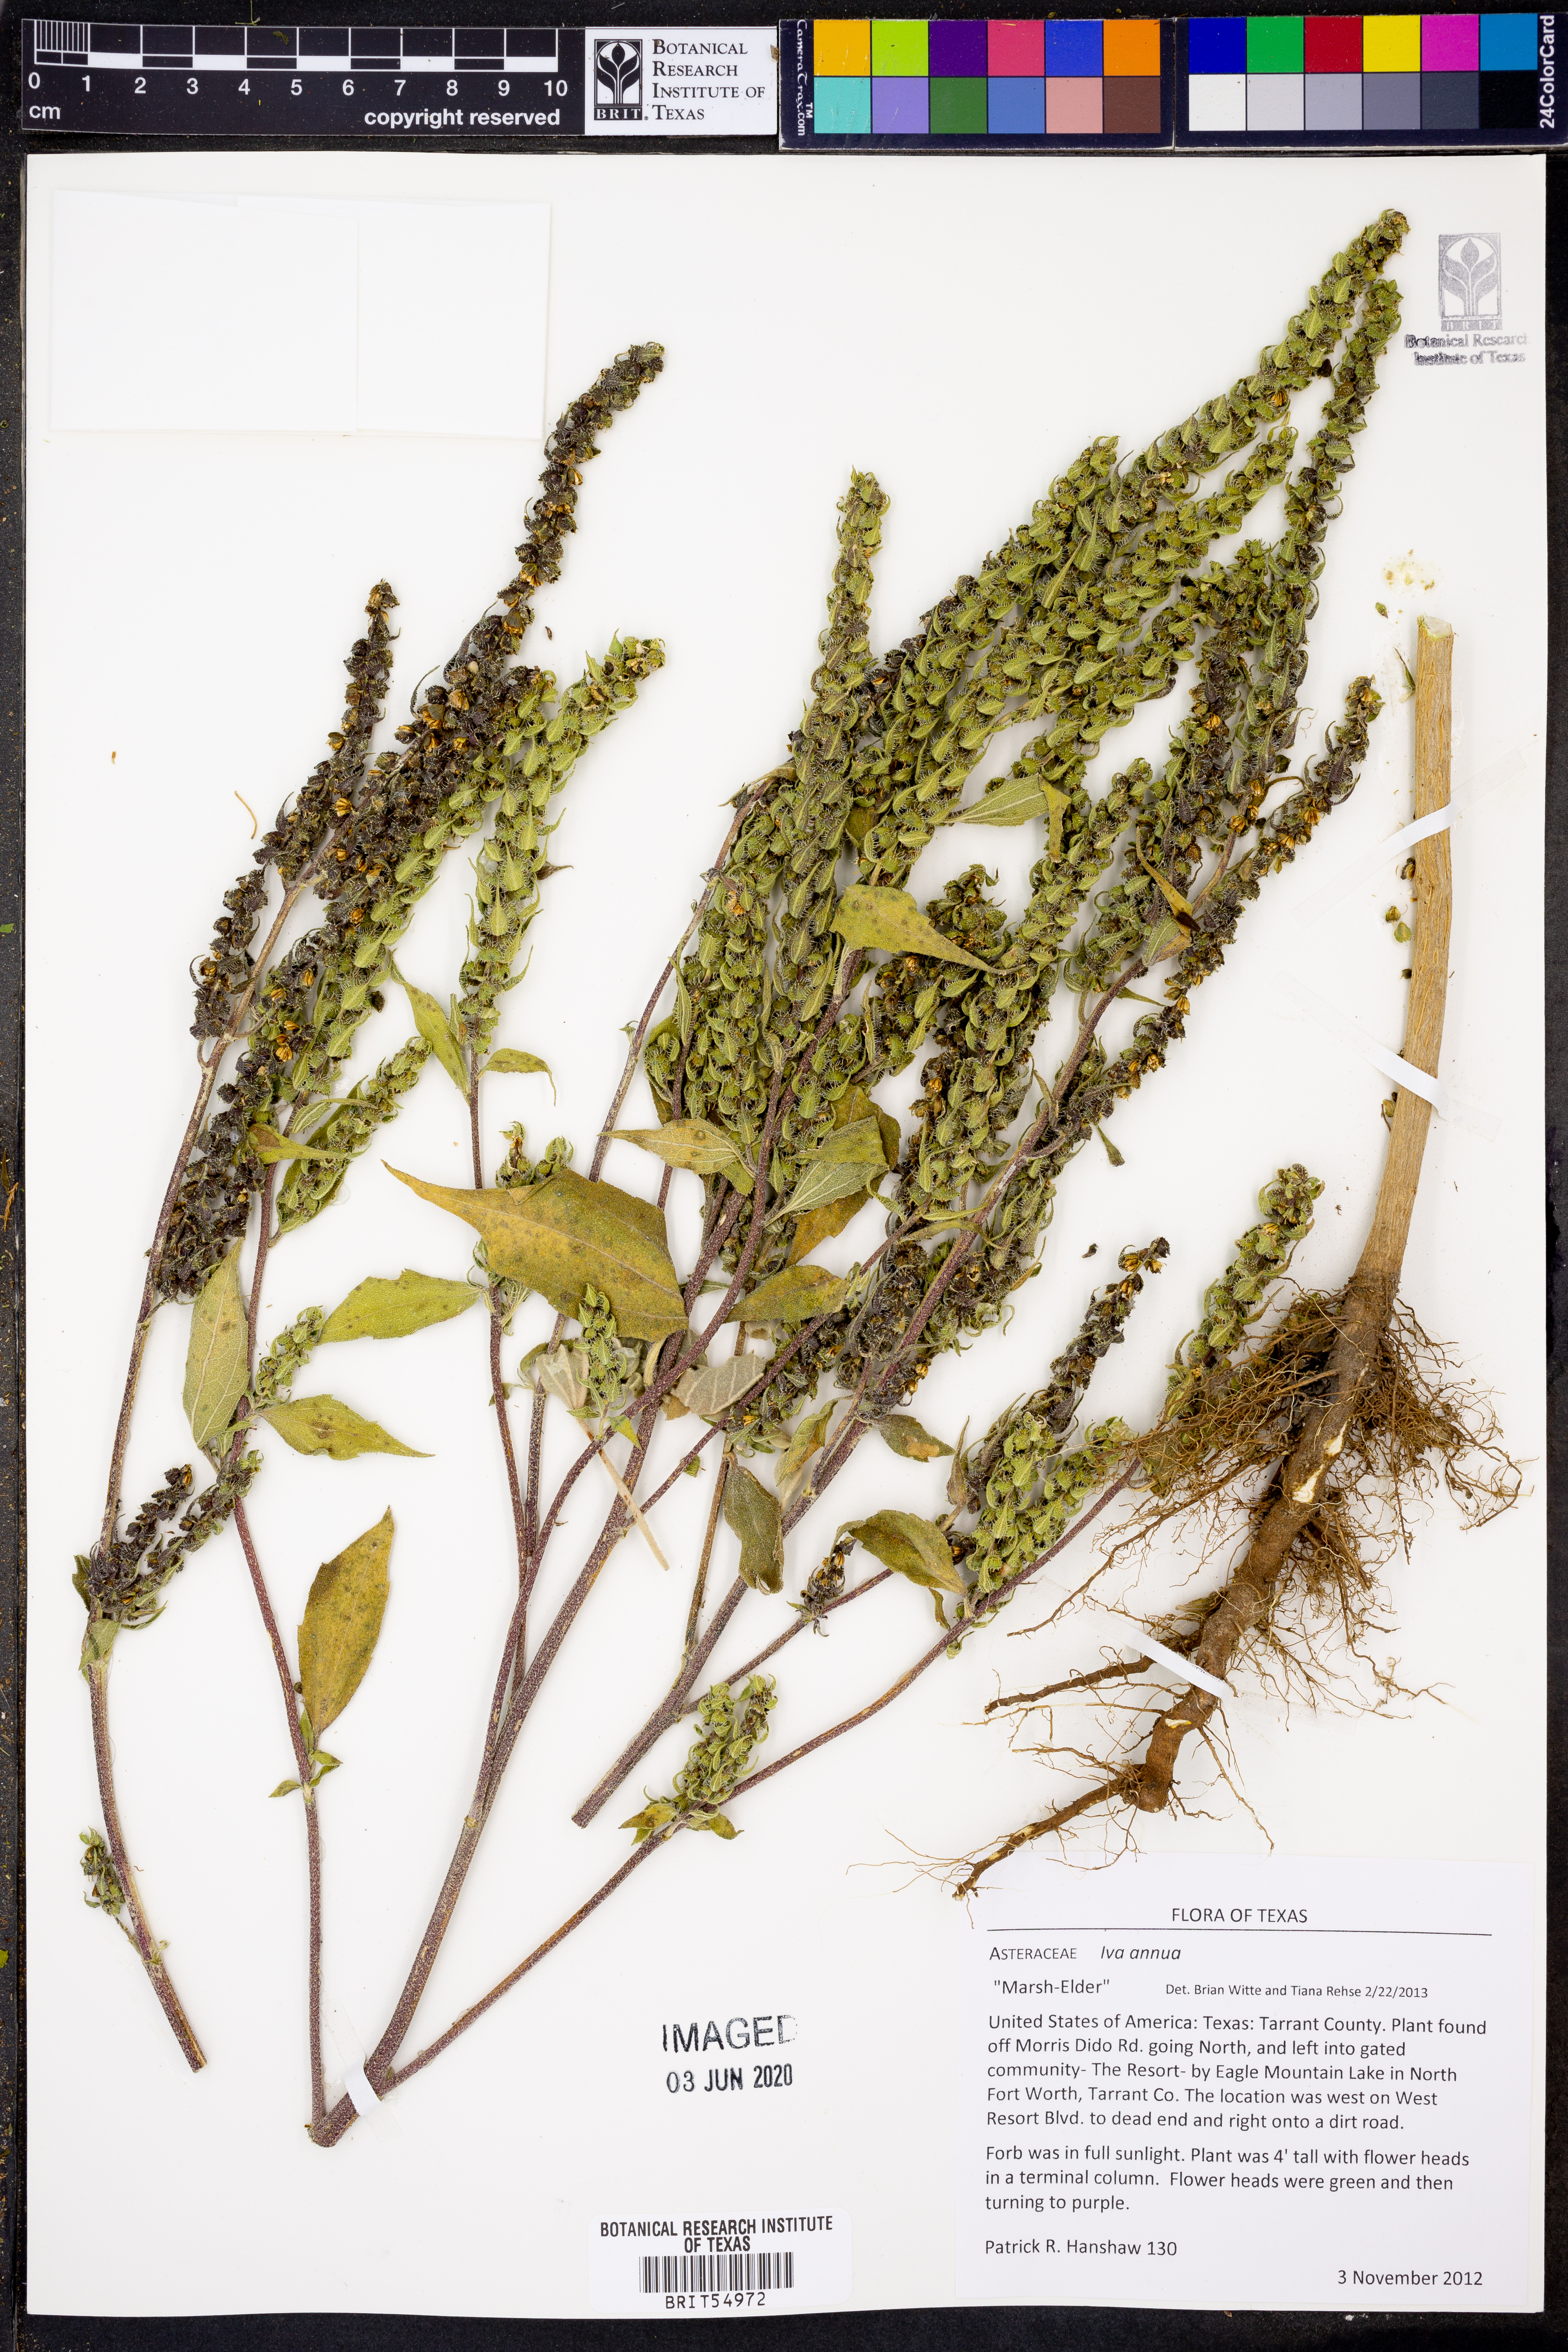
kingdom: Plantae
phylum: Tracheophyta
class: Magnoliopsida
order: Asterales
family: Asteraceae
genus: Iva
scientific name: Iva annua
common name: Marsh-elder
